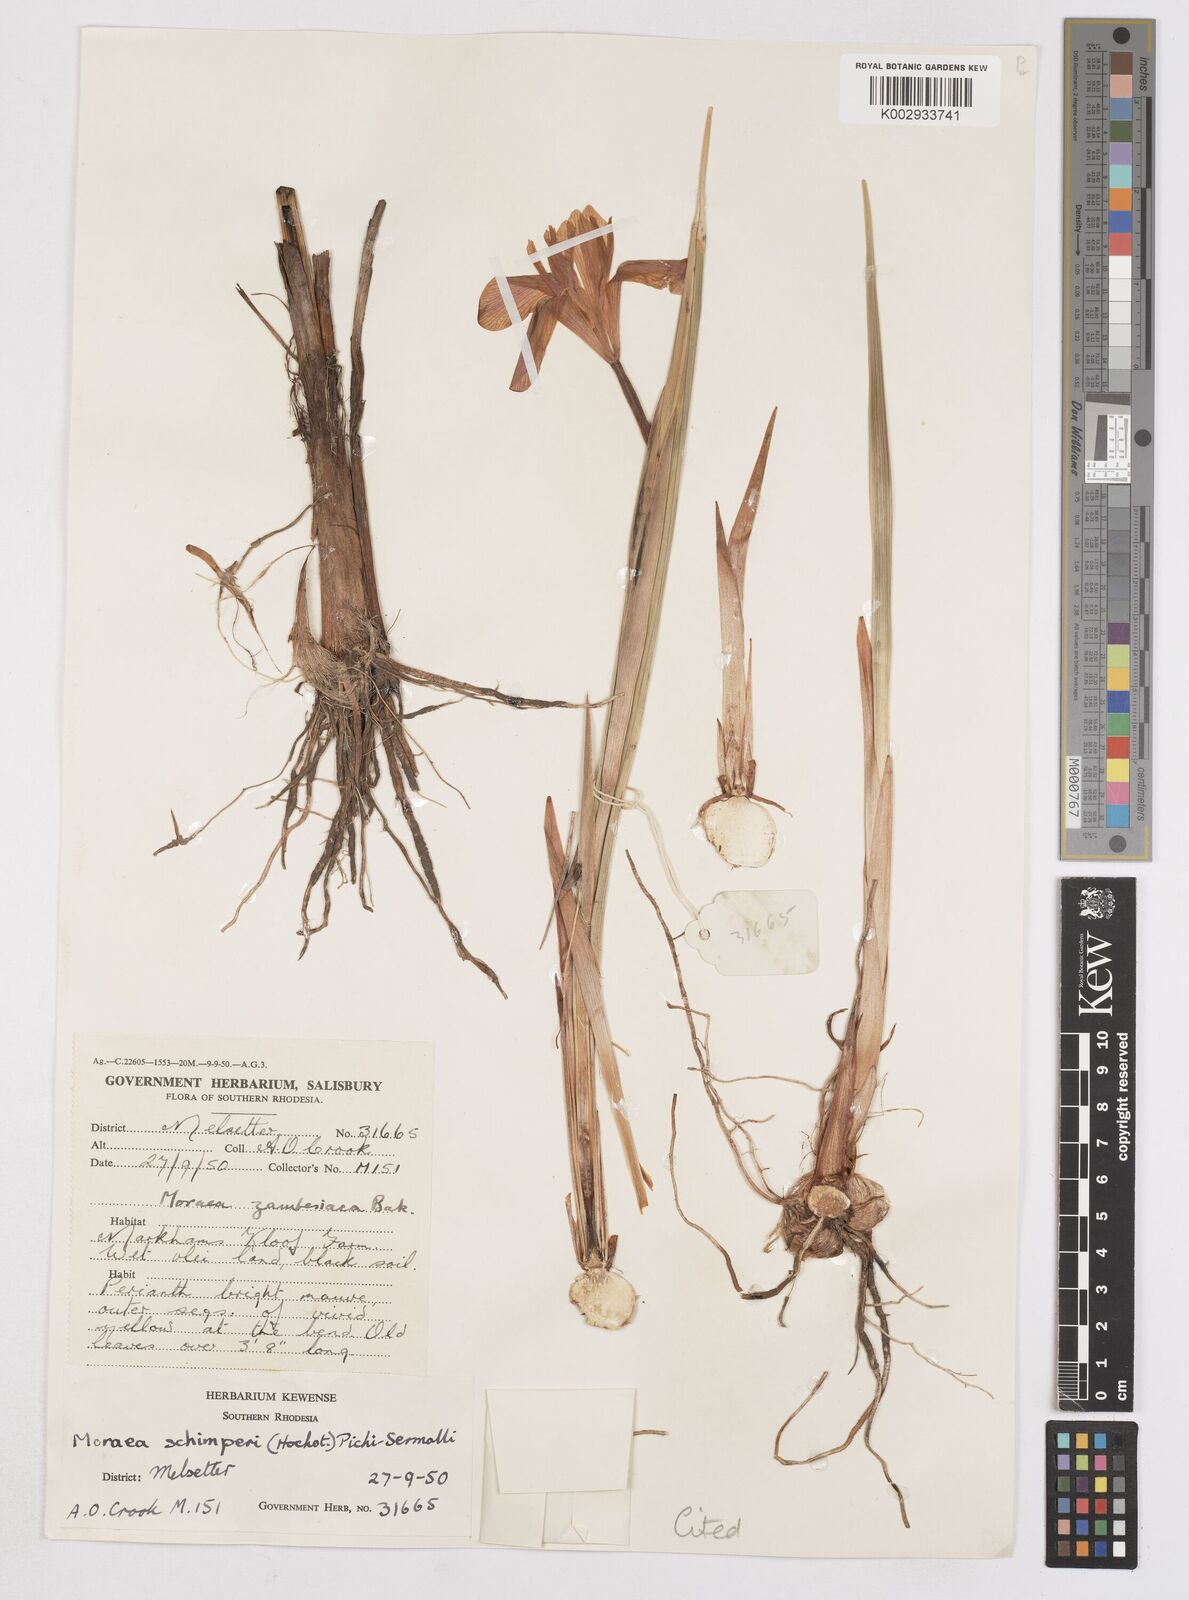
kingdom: Plantae
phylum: Tracheophyta
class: Liliopsida
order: Asparagales
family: Iridaceae
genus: Moraea
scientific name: Moraea schimperi
